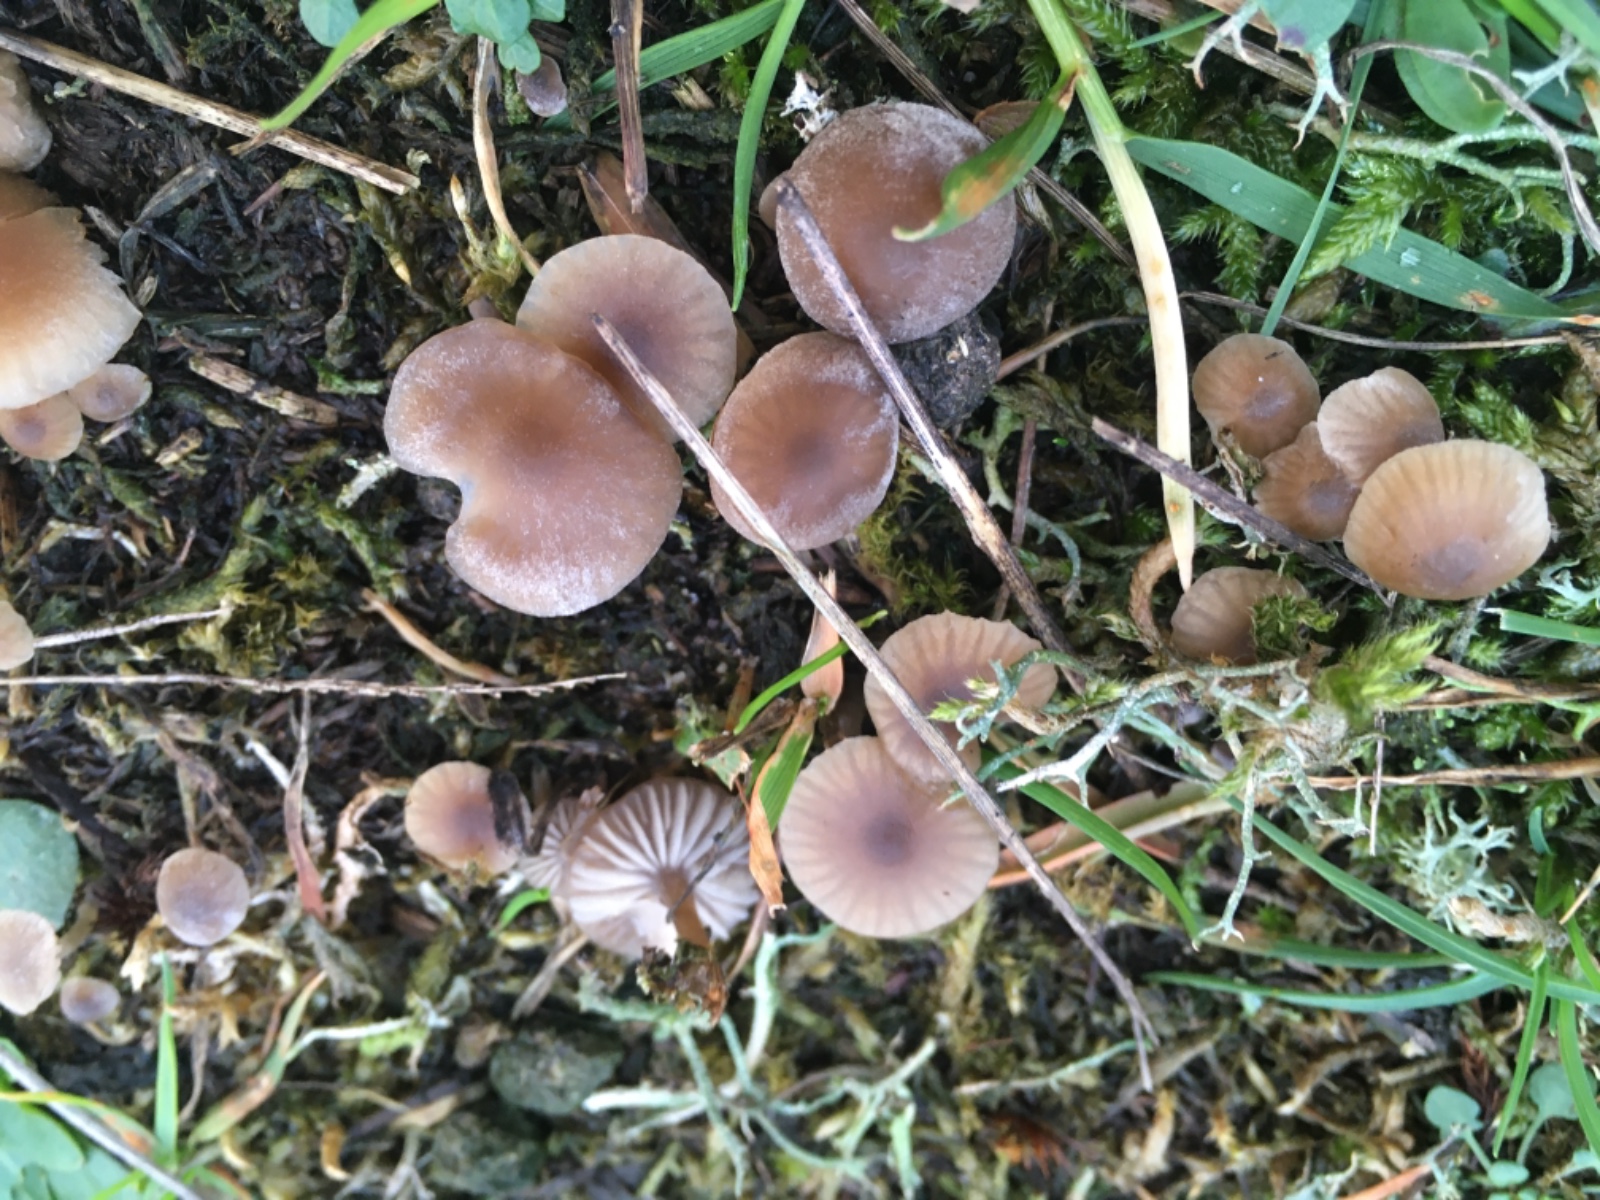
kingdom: Fungi
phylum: Basidiomycota
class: Agaricomycetes
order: Agaricales
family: Lyophyllaceae
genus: Sagaranella
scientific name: Sagaranella tylicolor
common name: kvælstof-gråblad
